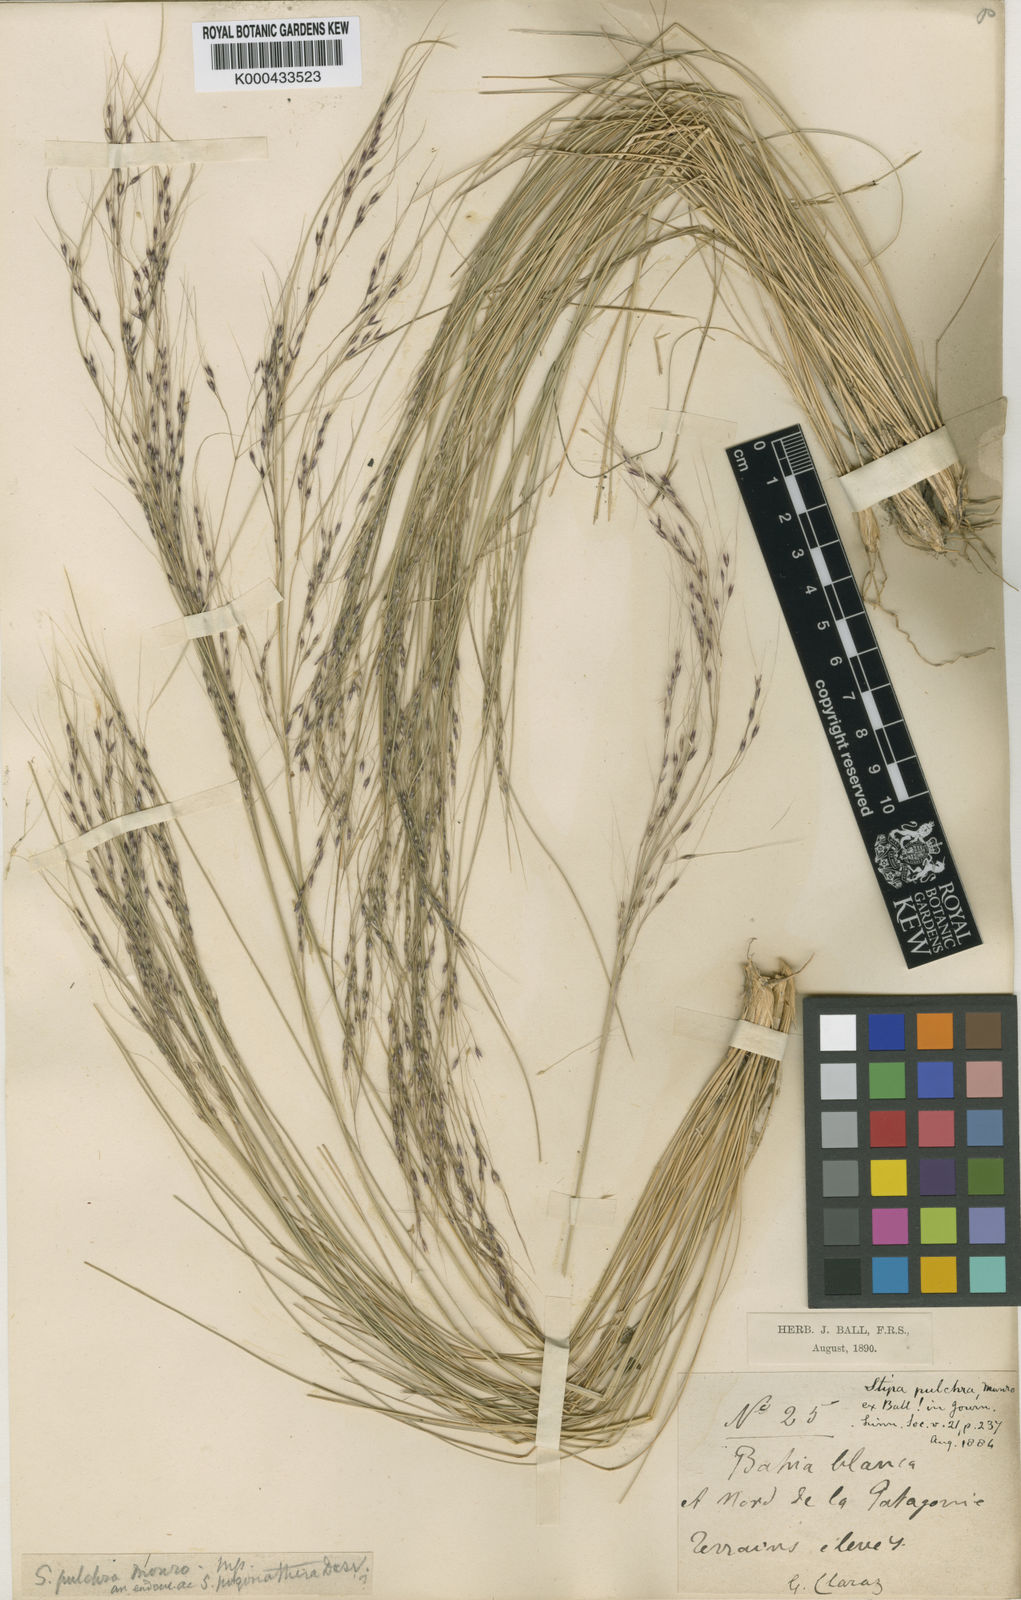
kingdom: Plantae
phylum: Tracheophyta
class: Liliopsida
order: Poales
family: Poaceae
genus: Nassella
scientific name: Nassella pulchra
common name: Purple needlegrass
